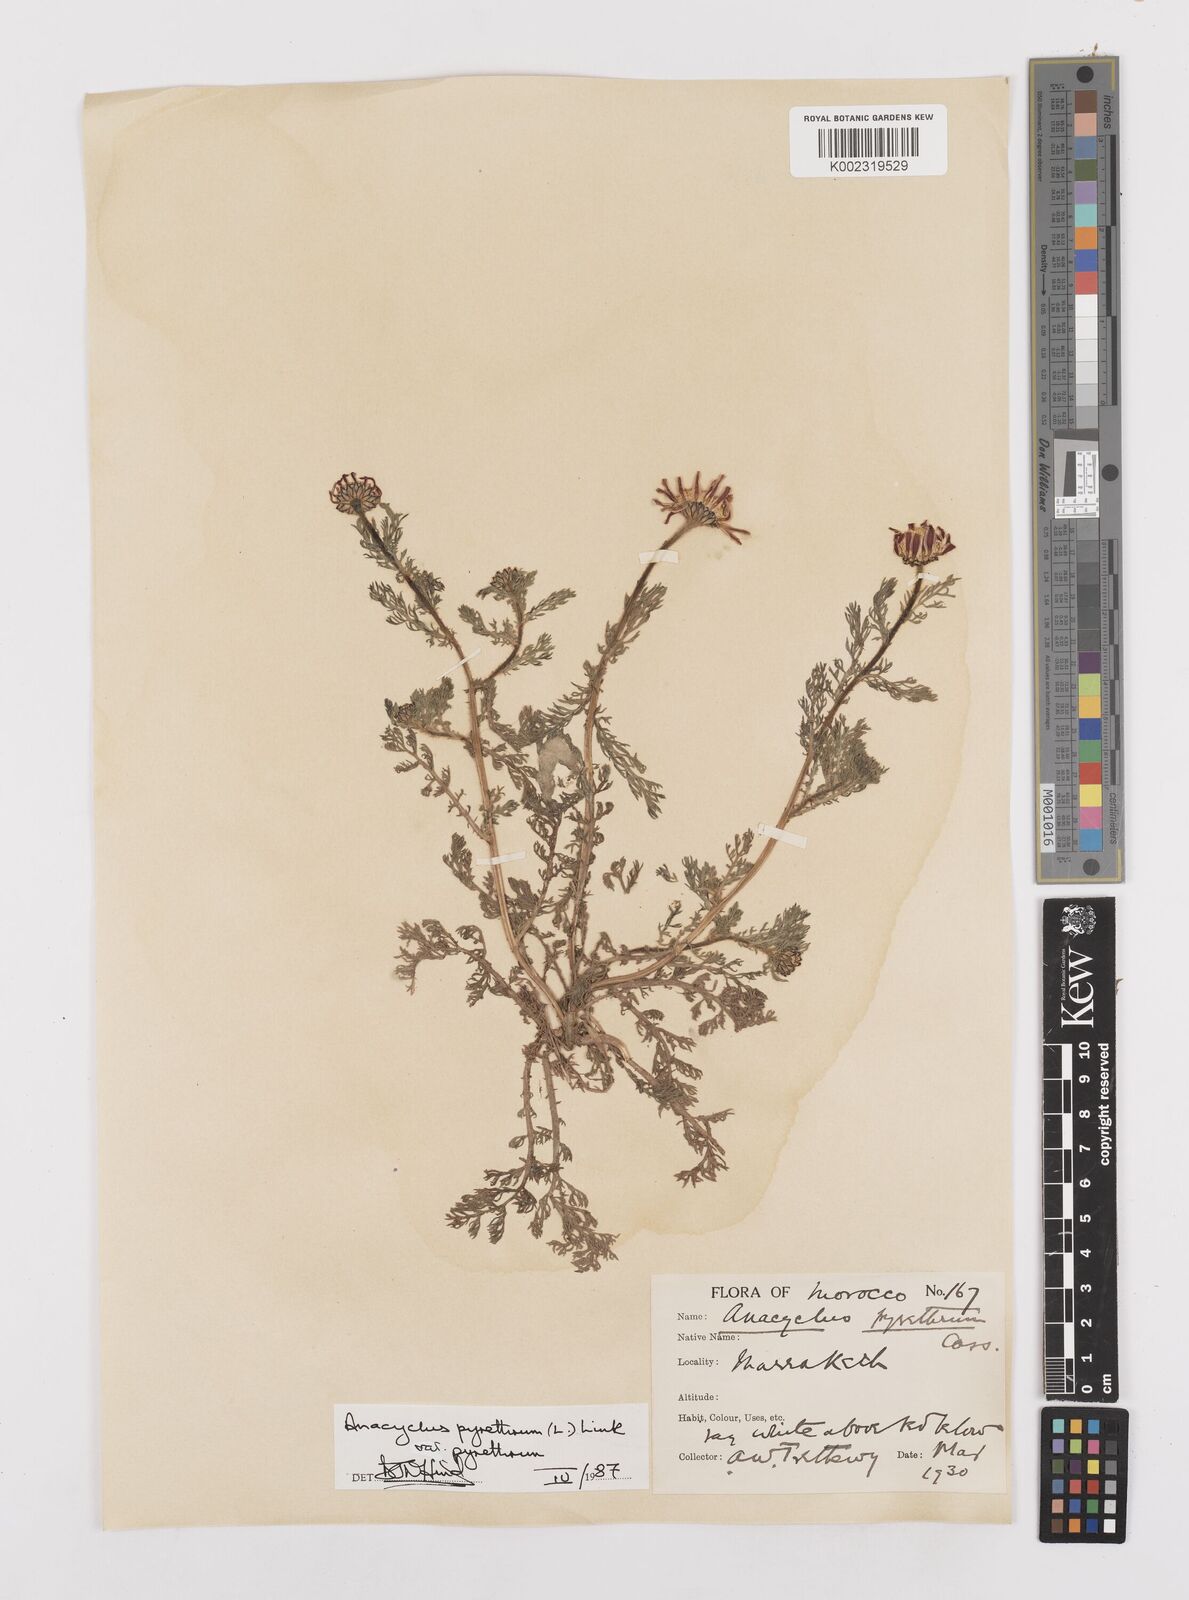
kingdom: Plantae
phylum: Tracheophyta
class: Magnoliopsida
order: Asterales
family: Asteraceae
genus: Anacyclus
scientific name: Anacyclus pyrethrum
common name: Mt. atlas daisy
